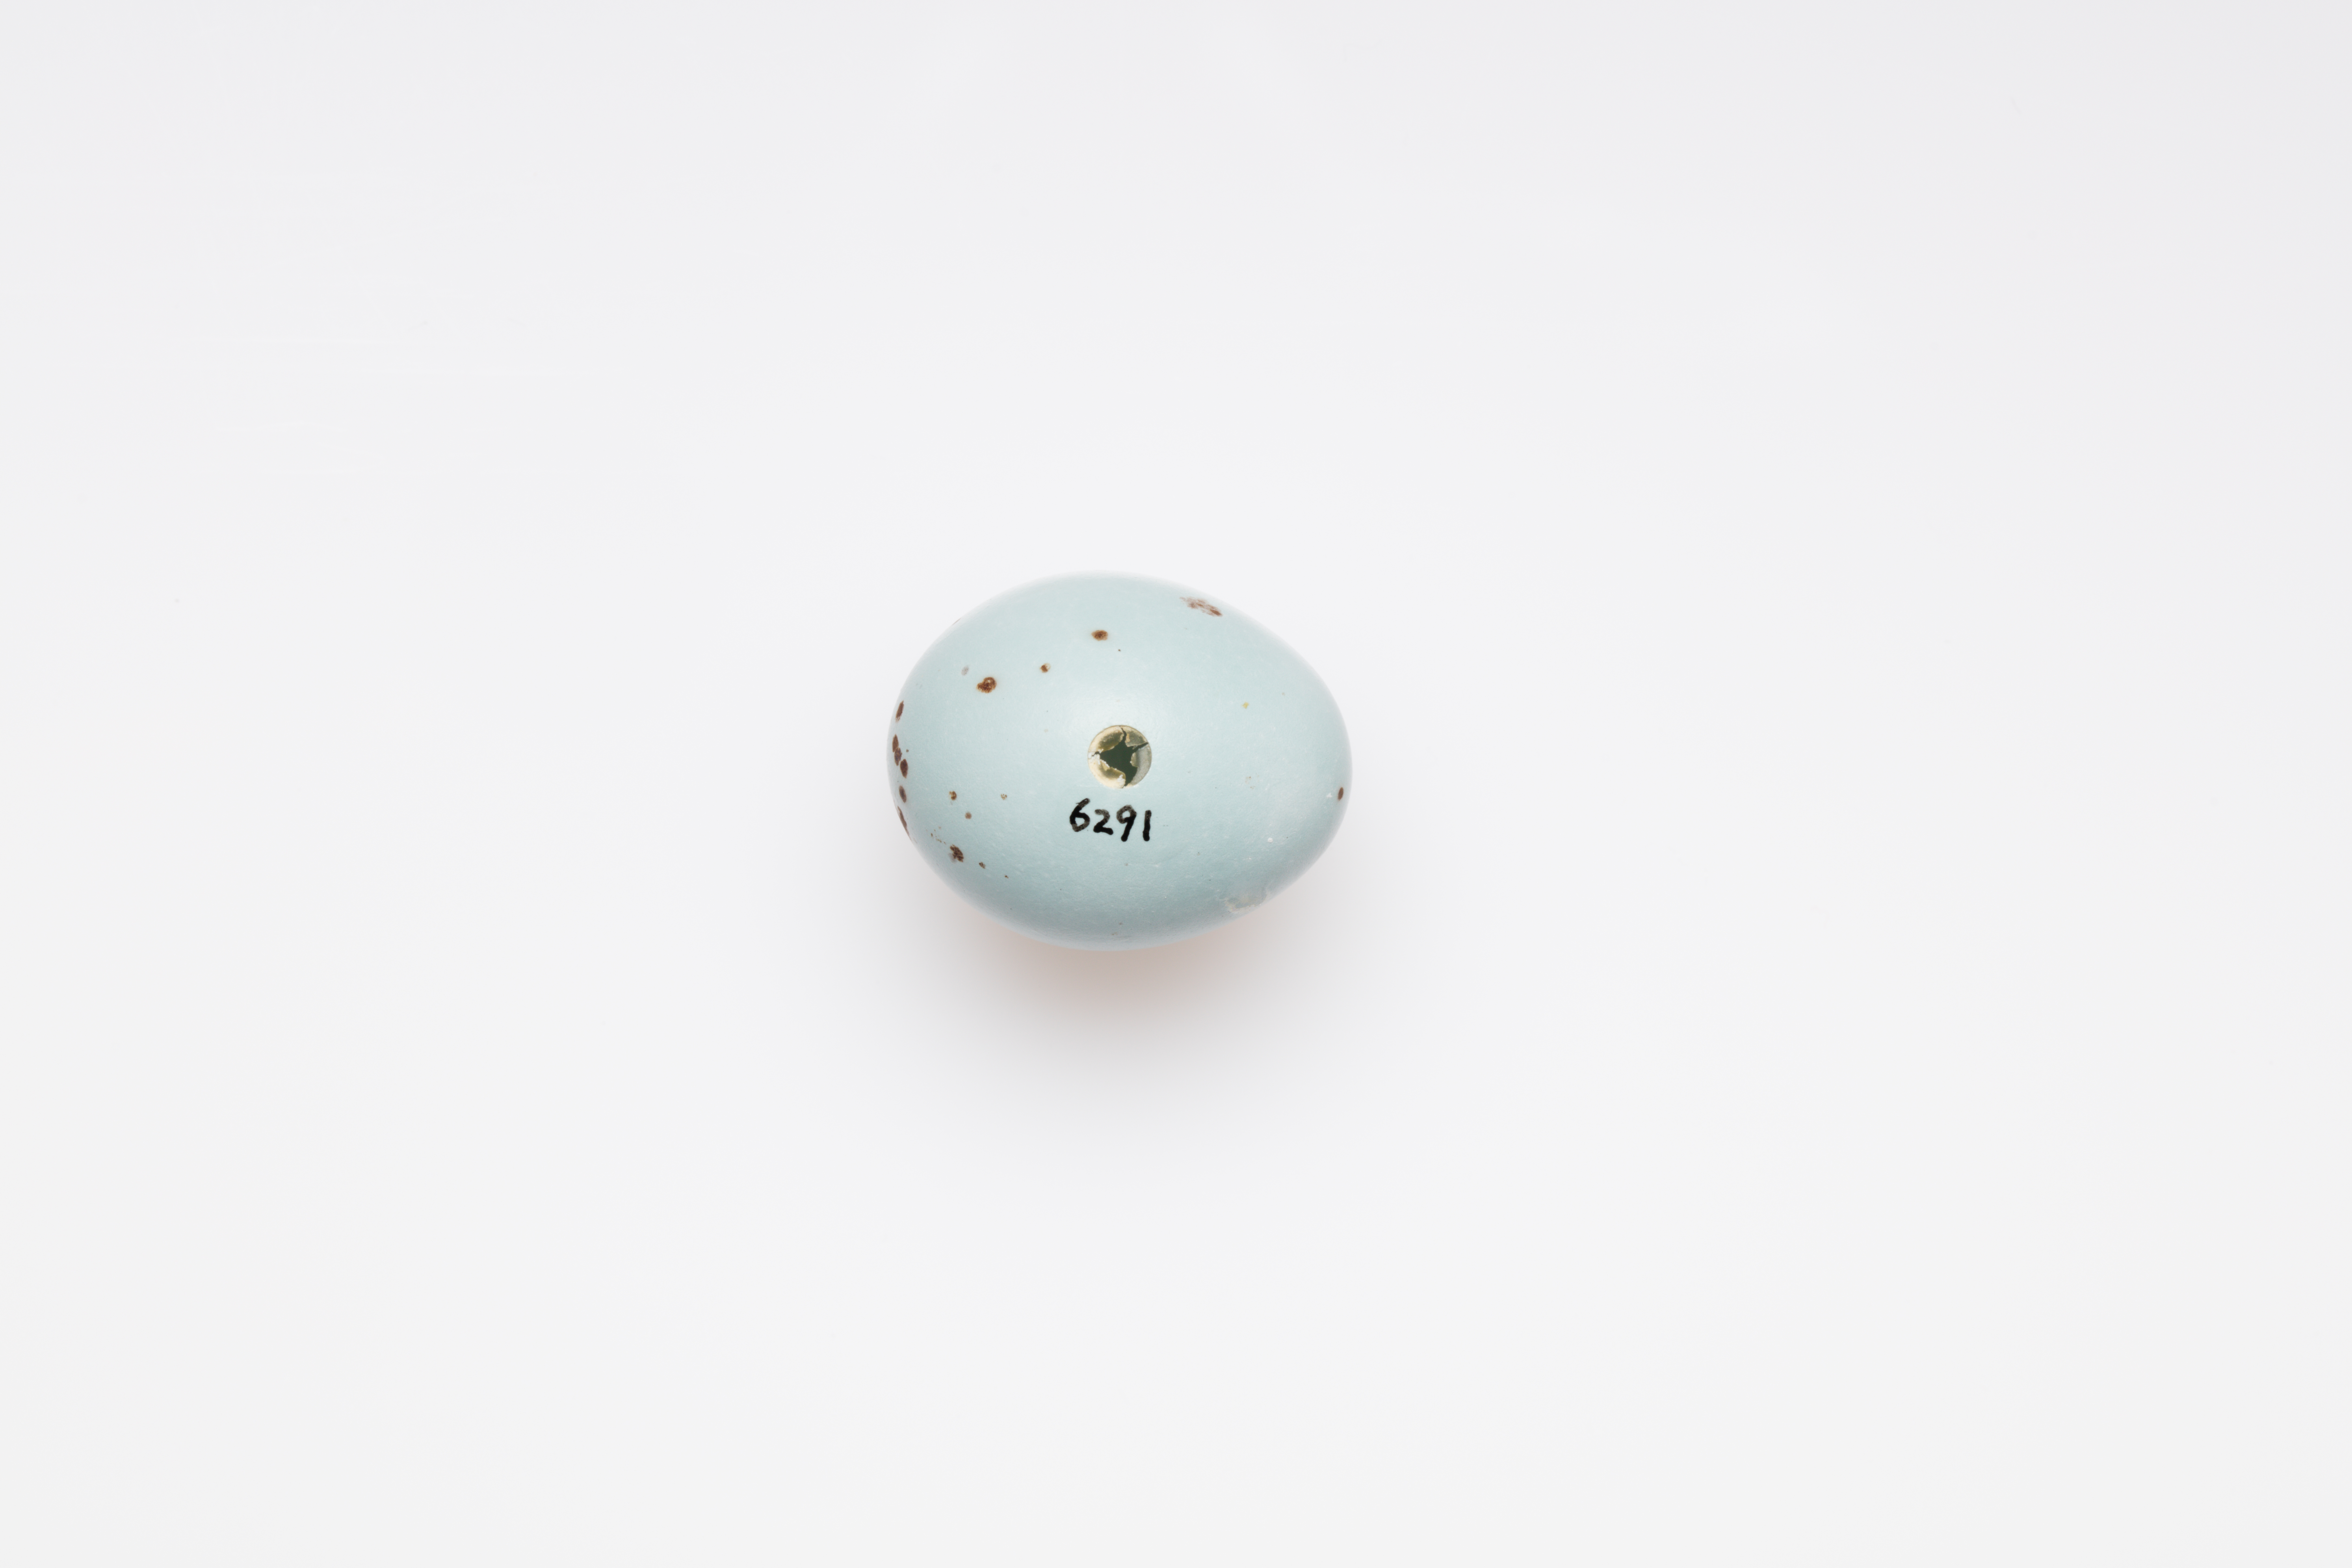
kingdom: Animalia
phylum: Chordata
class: Aves
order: Passeriformes
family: Turdidae
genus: Turdus
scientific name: Turdus philomelos
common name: Song thrush
